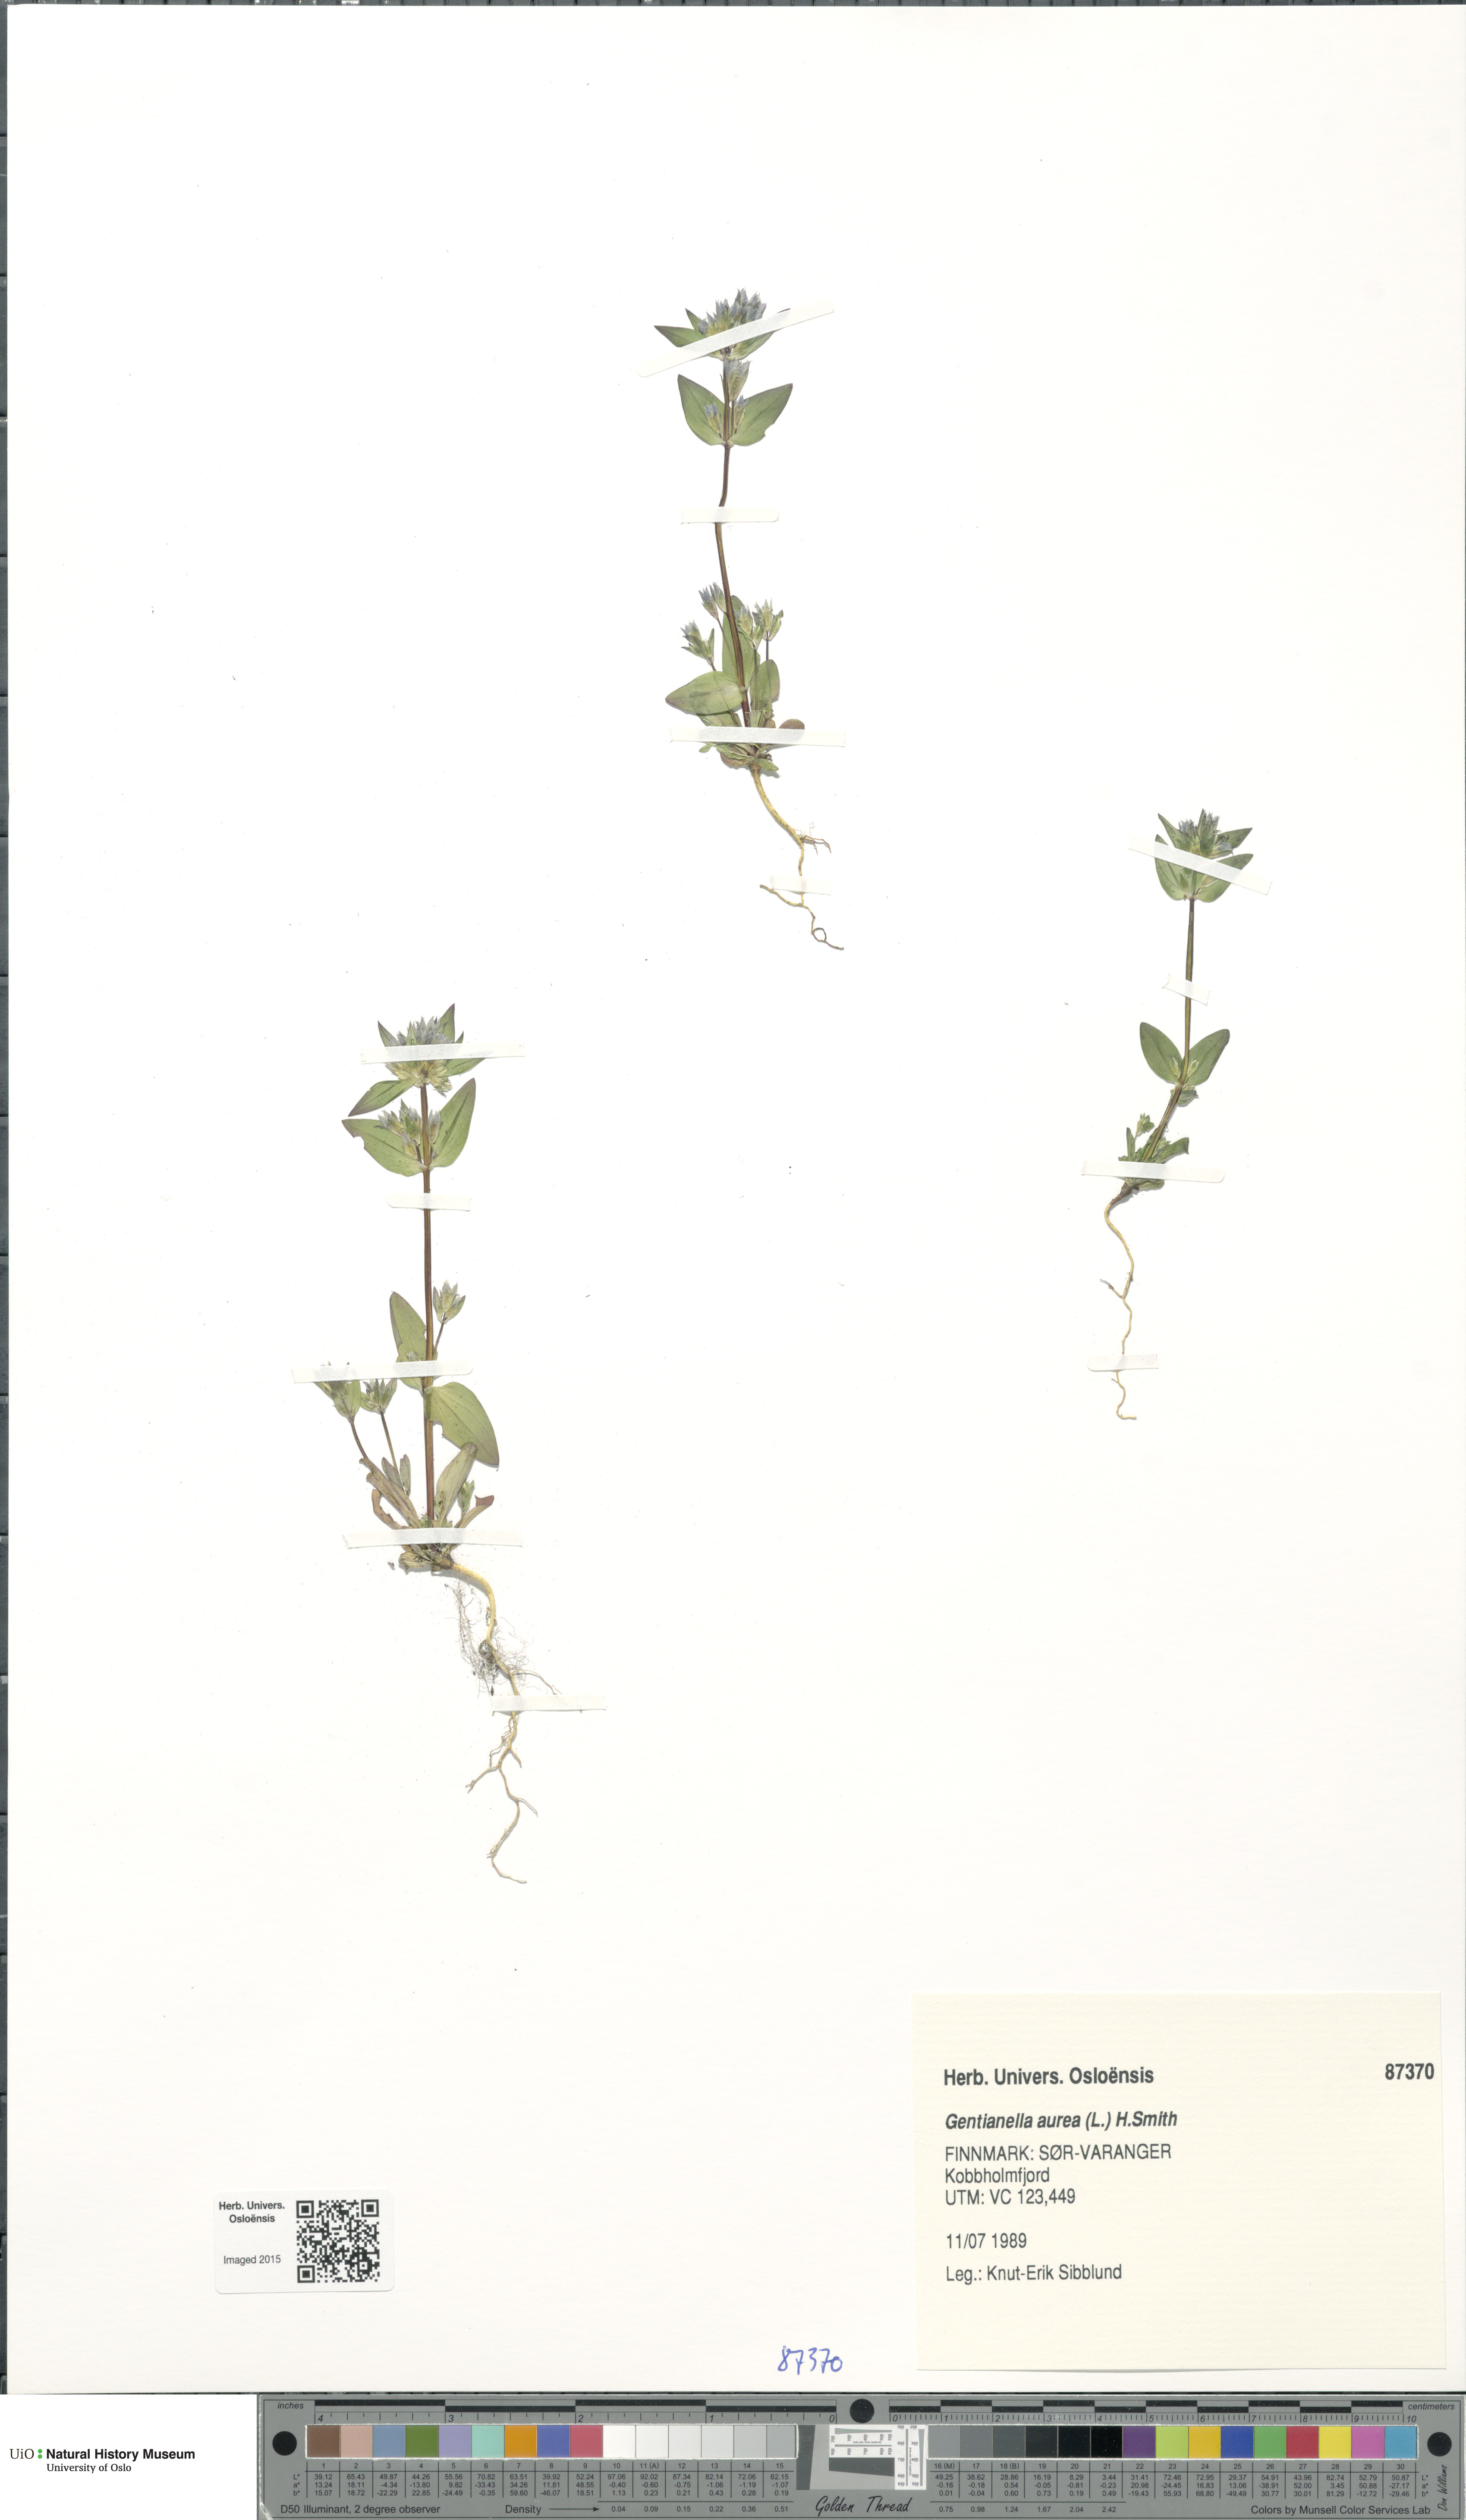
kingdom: Plantae
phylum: Tracheophyta
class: Magnoliopsida
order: Gentianales
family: Gentianaceae
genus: Gentianella
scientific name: Gentianella aurea
